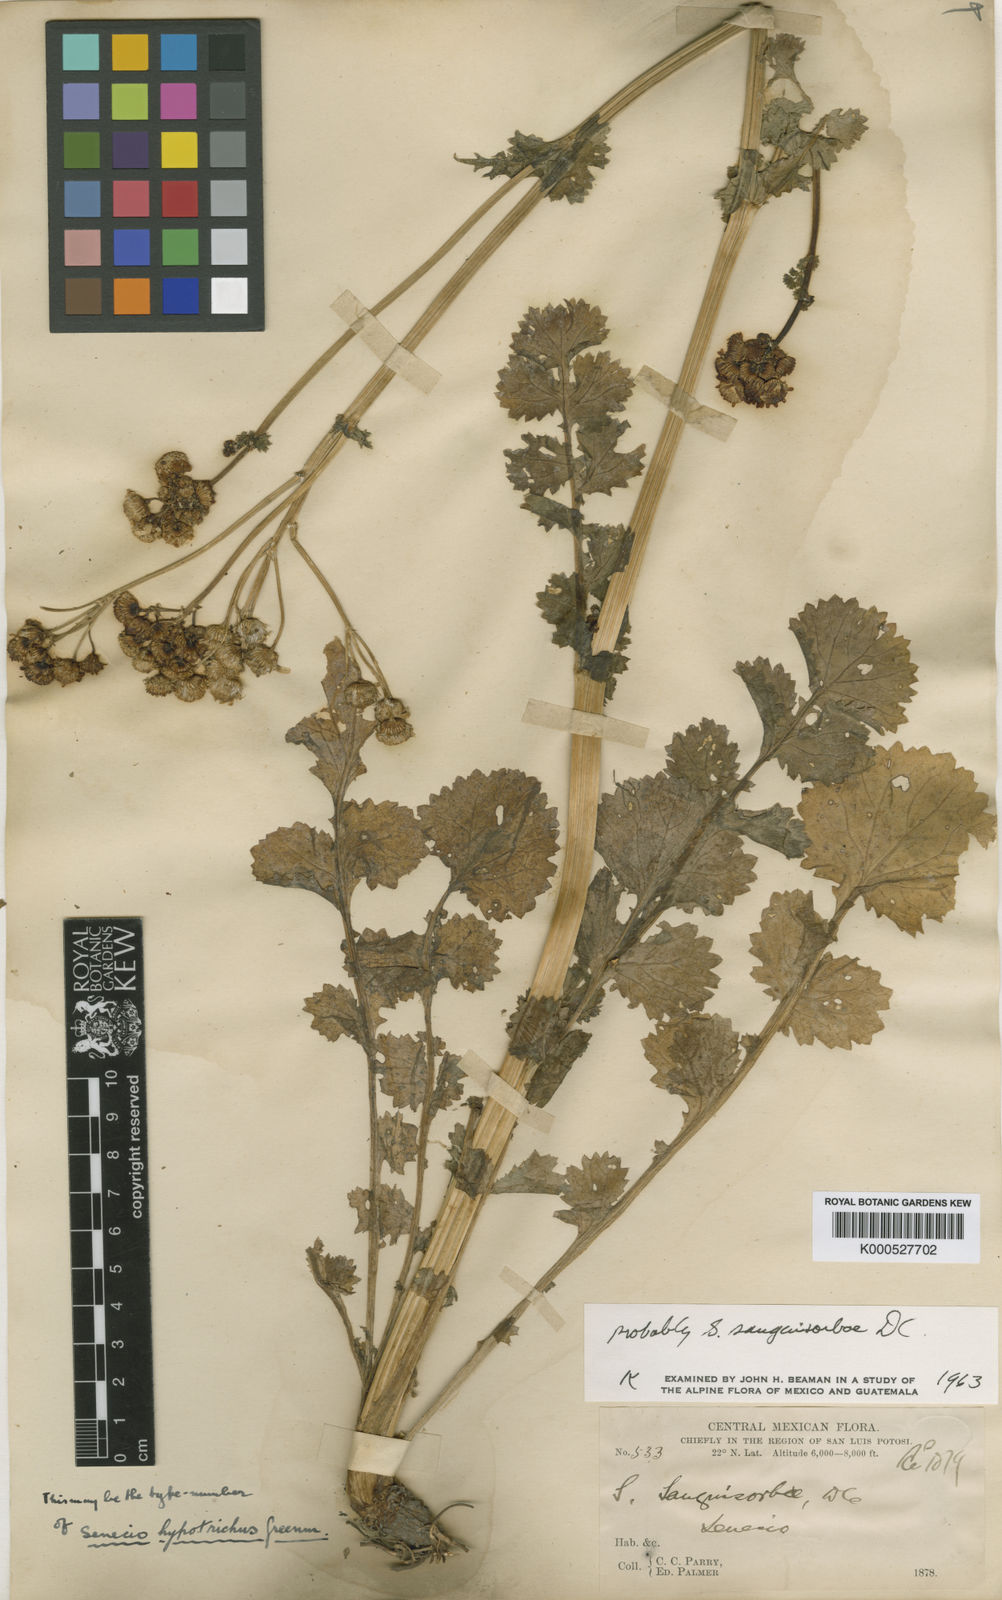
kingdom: Plantae
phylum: Tracheophyta
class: Magnoliopsida
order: Asterales
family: Asteraceae
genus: Packera
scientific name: Packera
